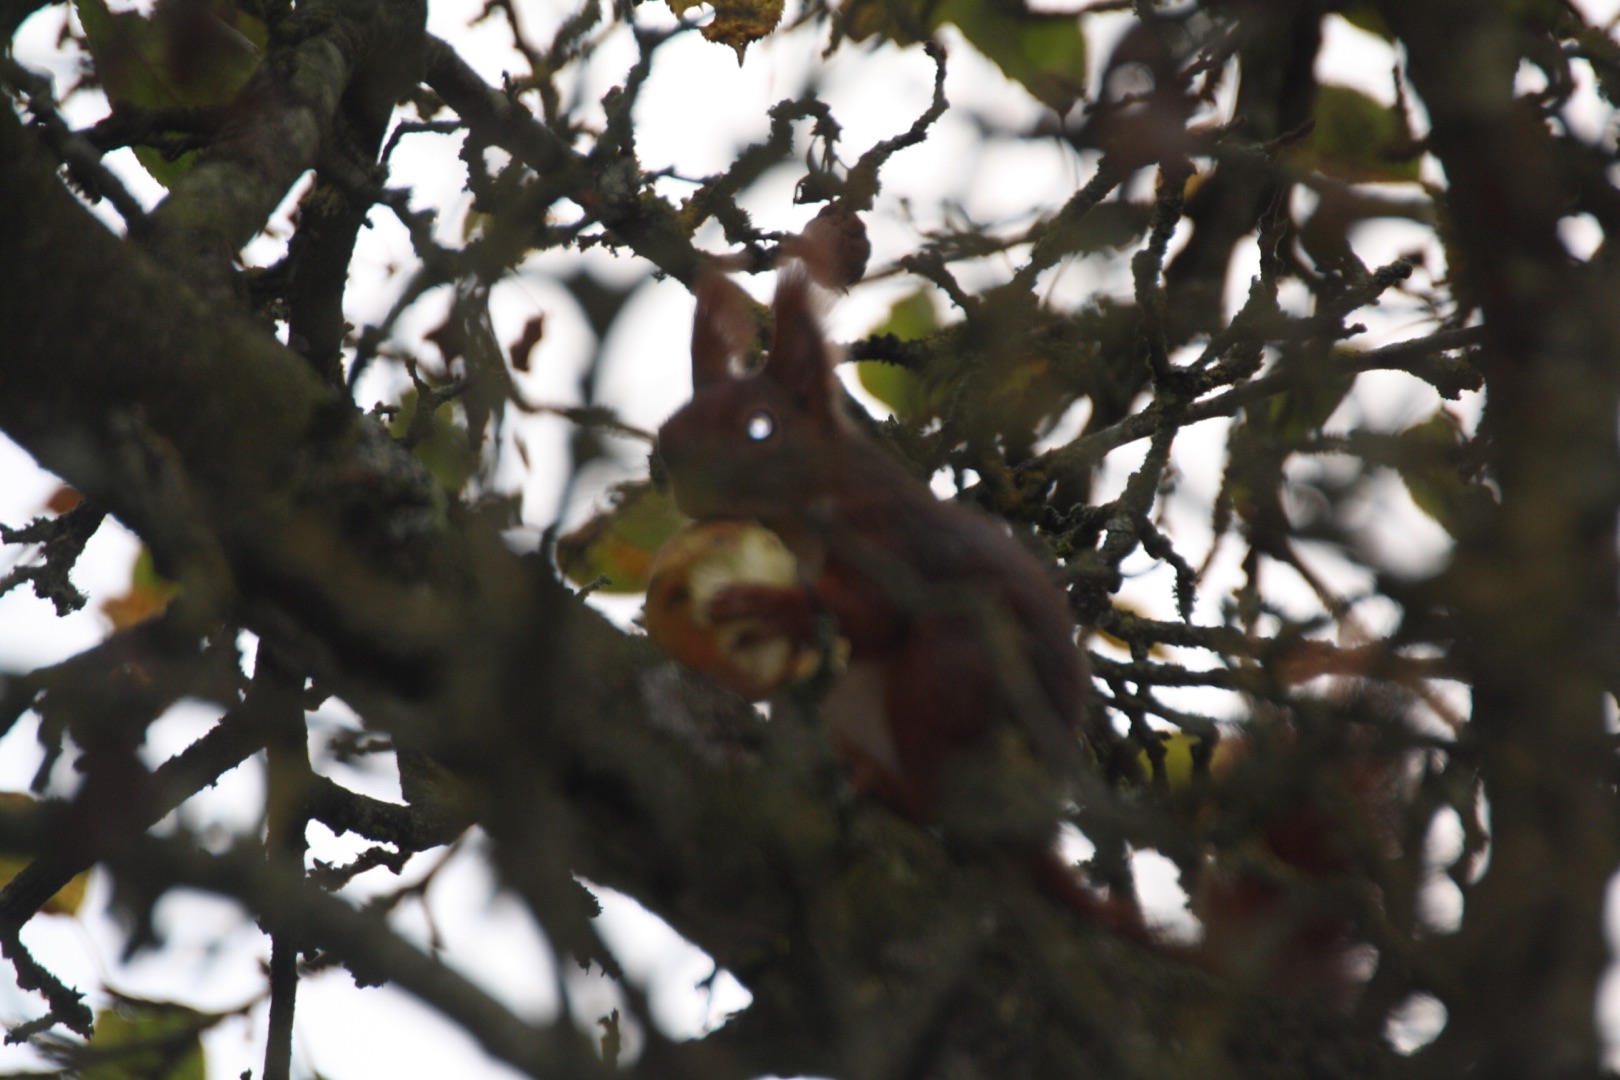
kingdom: Animalia
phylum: Chordata
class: Mammalia
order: Rodentia
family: Sciuridae
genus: Sciurus
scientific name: Sciurus vulgaris
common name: Egern
